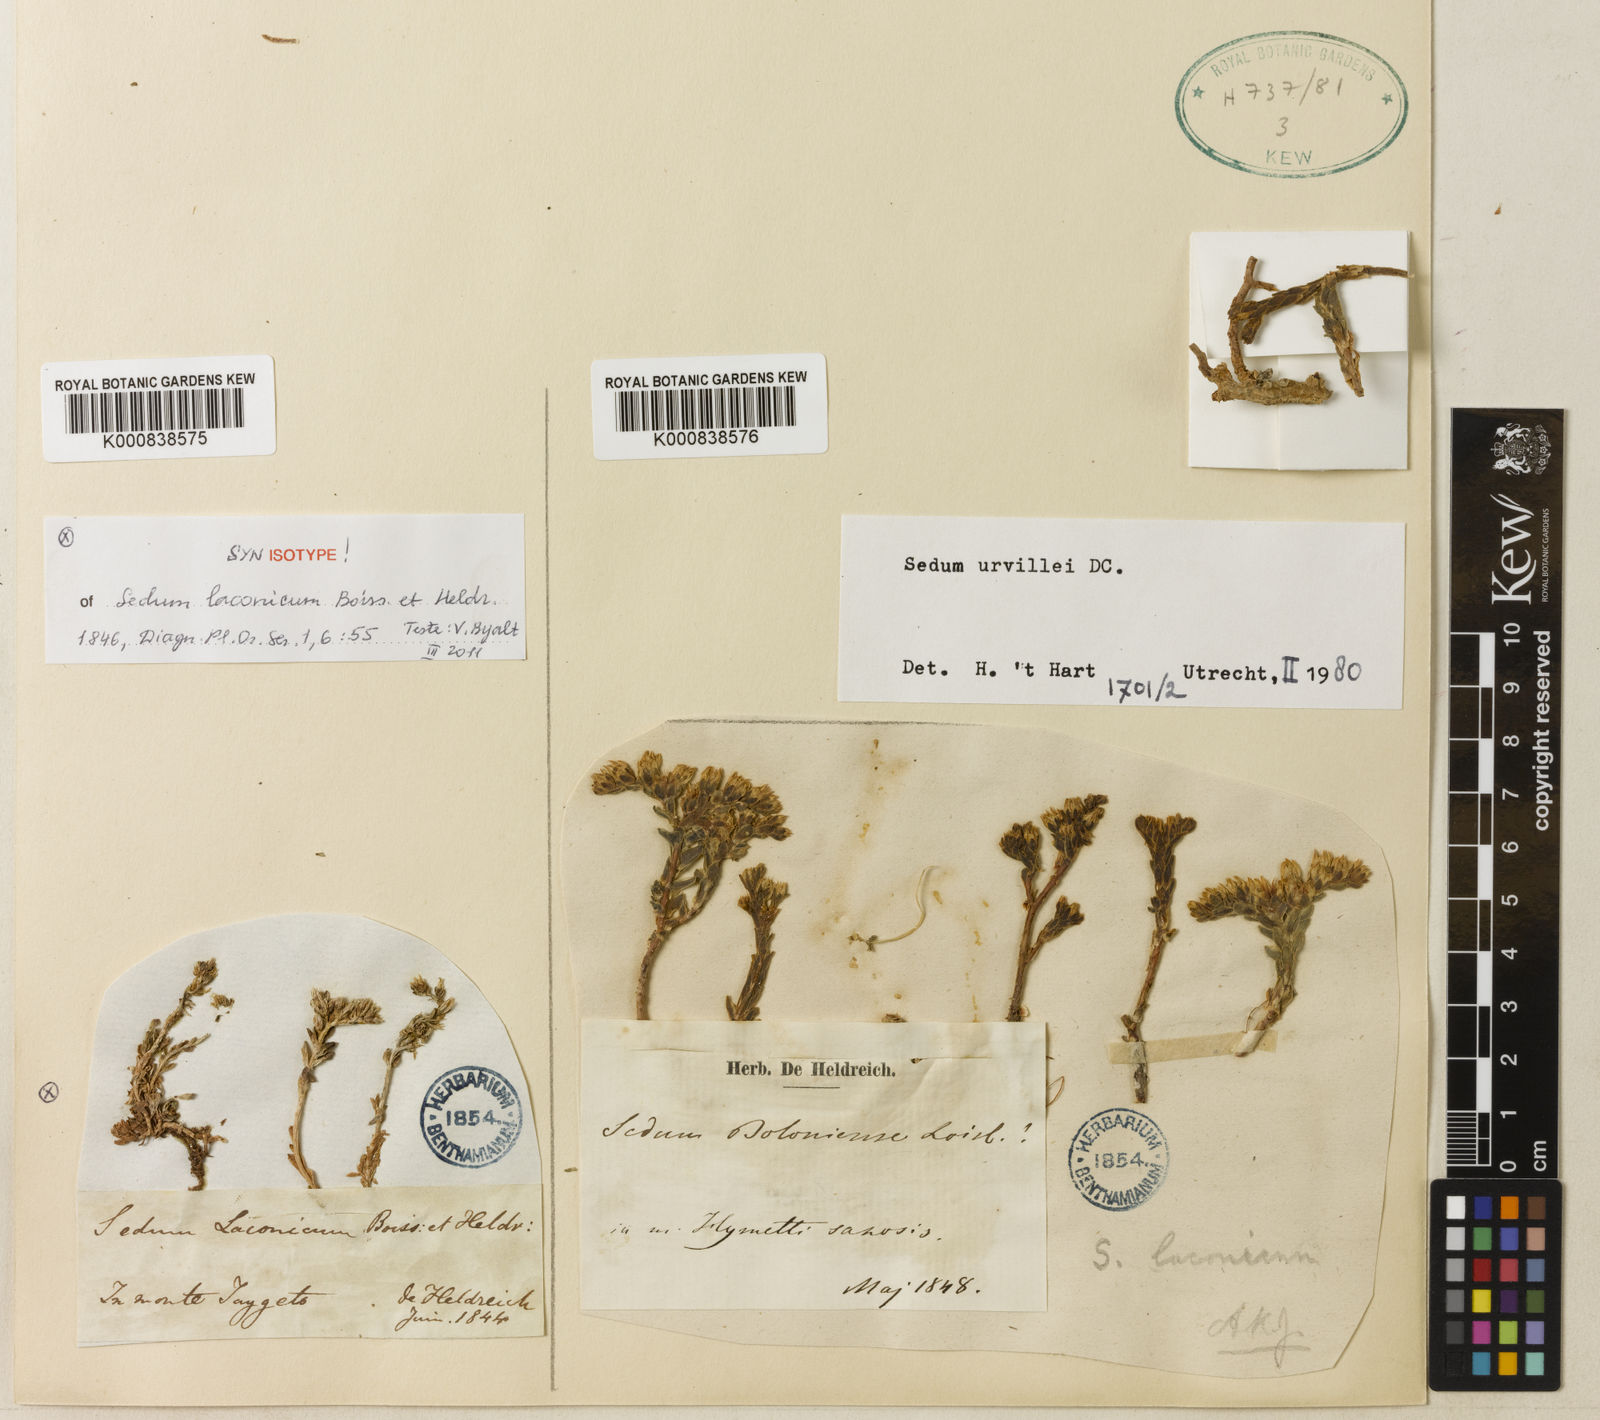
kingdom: Plantae
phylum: Tracheophyta
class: Magnoliopsida
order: Saxifragales
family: Crassulaceae
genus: Sedum
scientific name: Sedum laconicum
